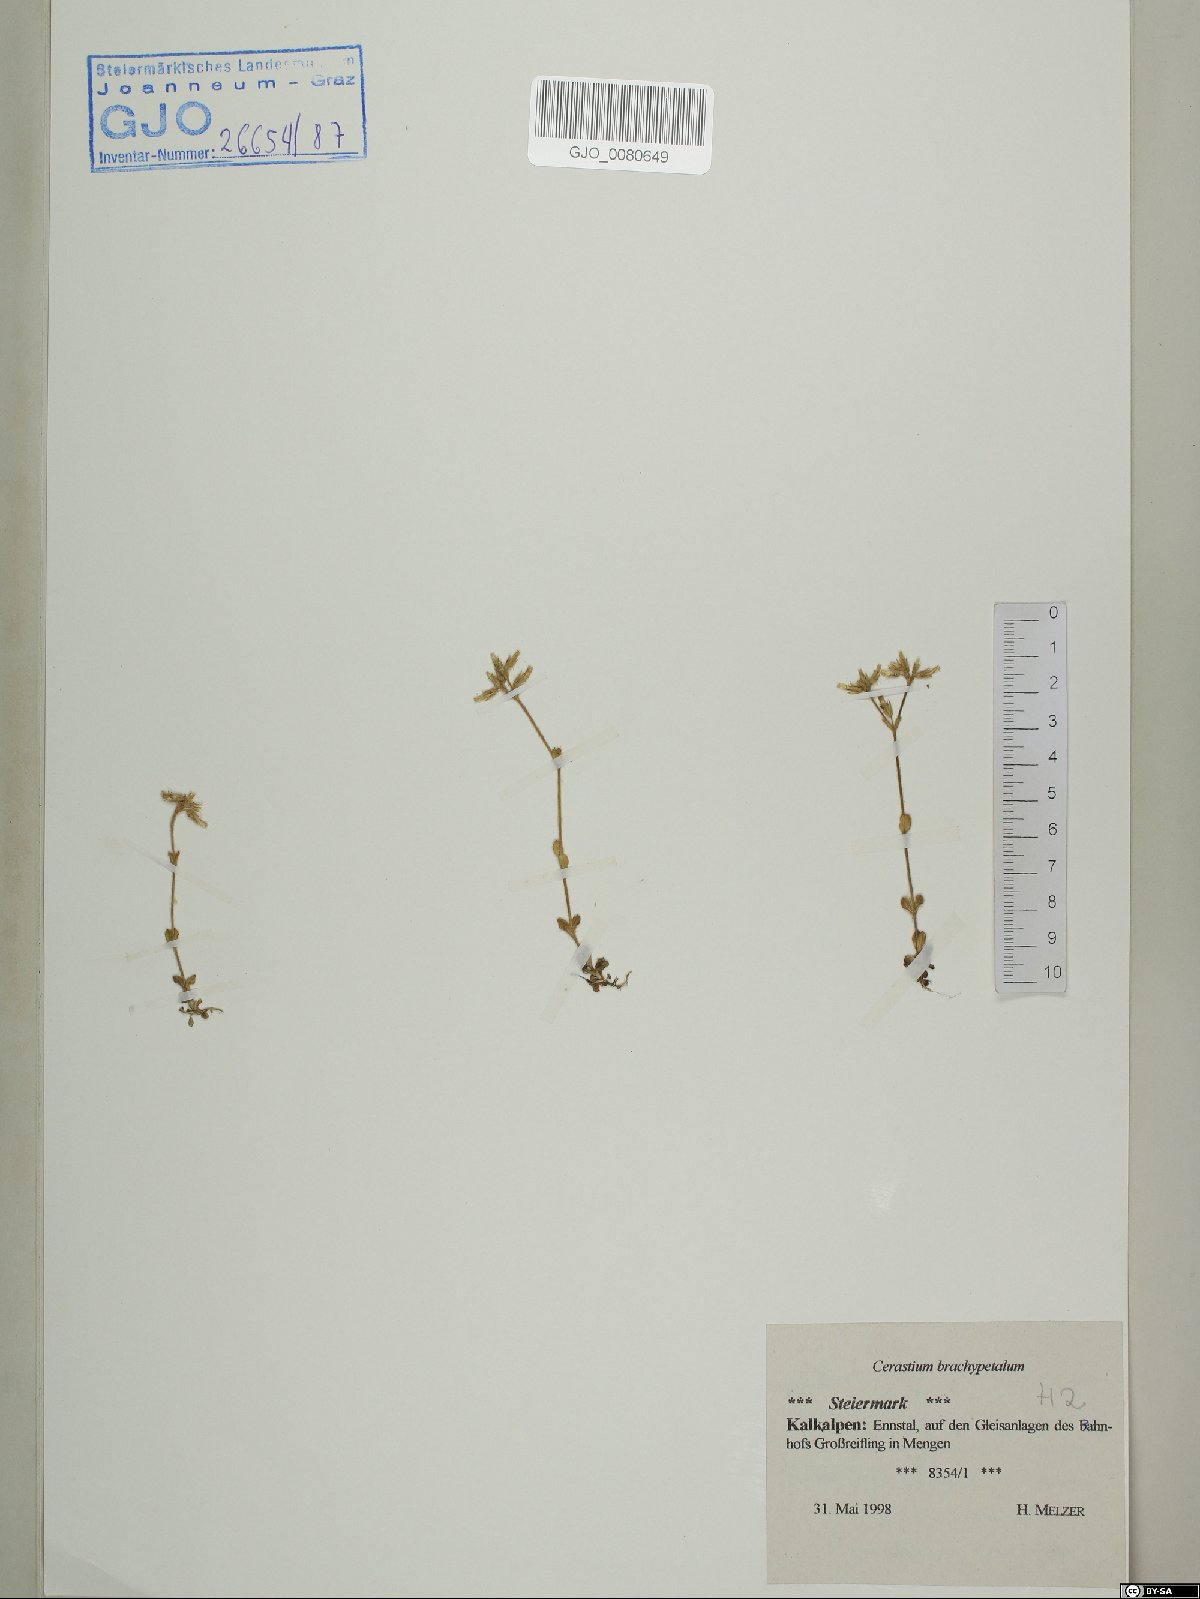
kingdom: Plantae
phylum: Tracheophyta
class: Magnoliopsida
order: Caryophyllales
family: Caryophyllaceae
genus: Cerastium
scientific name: Cerastium brachypetalum
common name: Grey mouse-ear
